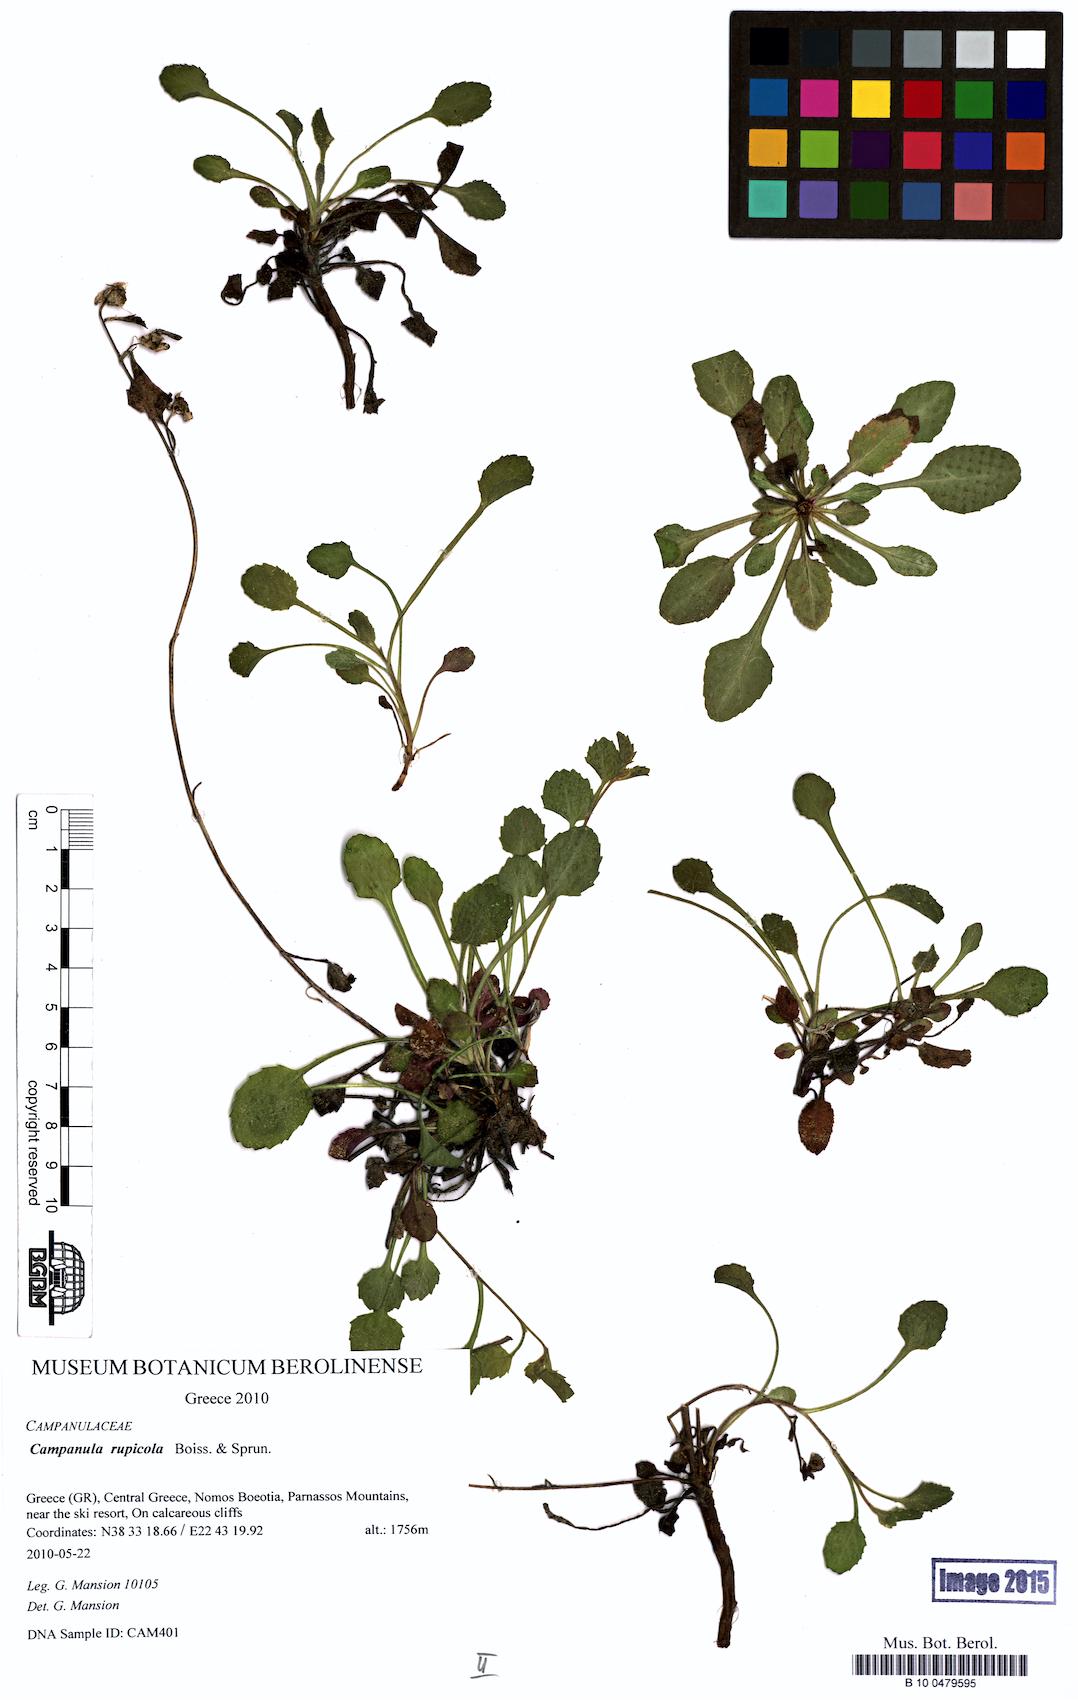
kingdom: Plantae
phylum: Tracheophyta
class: Magnoliopsida
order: Asterales
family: Campanulaceae
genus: Campanula
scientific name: Campanula rupicola
